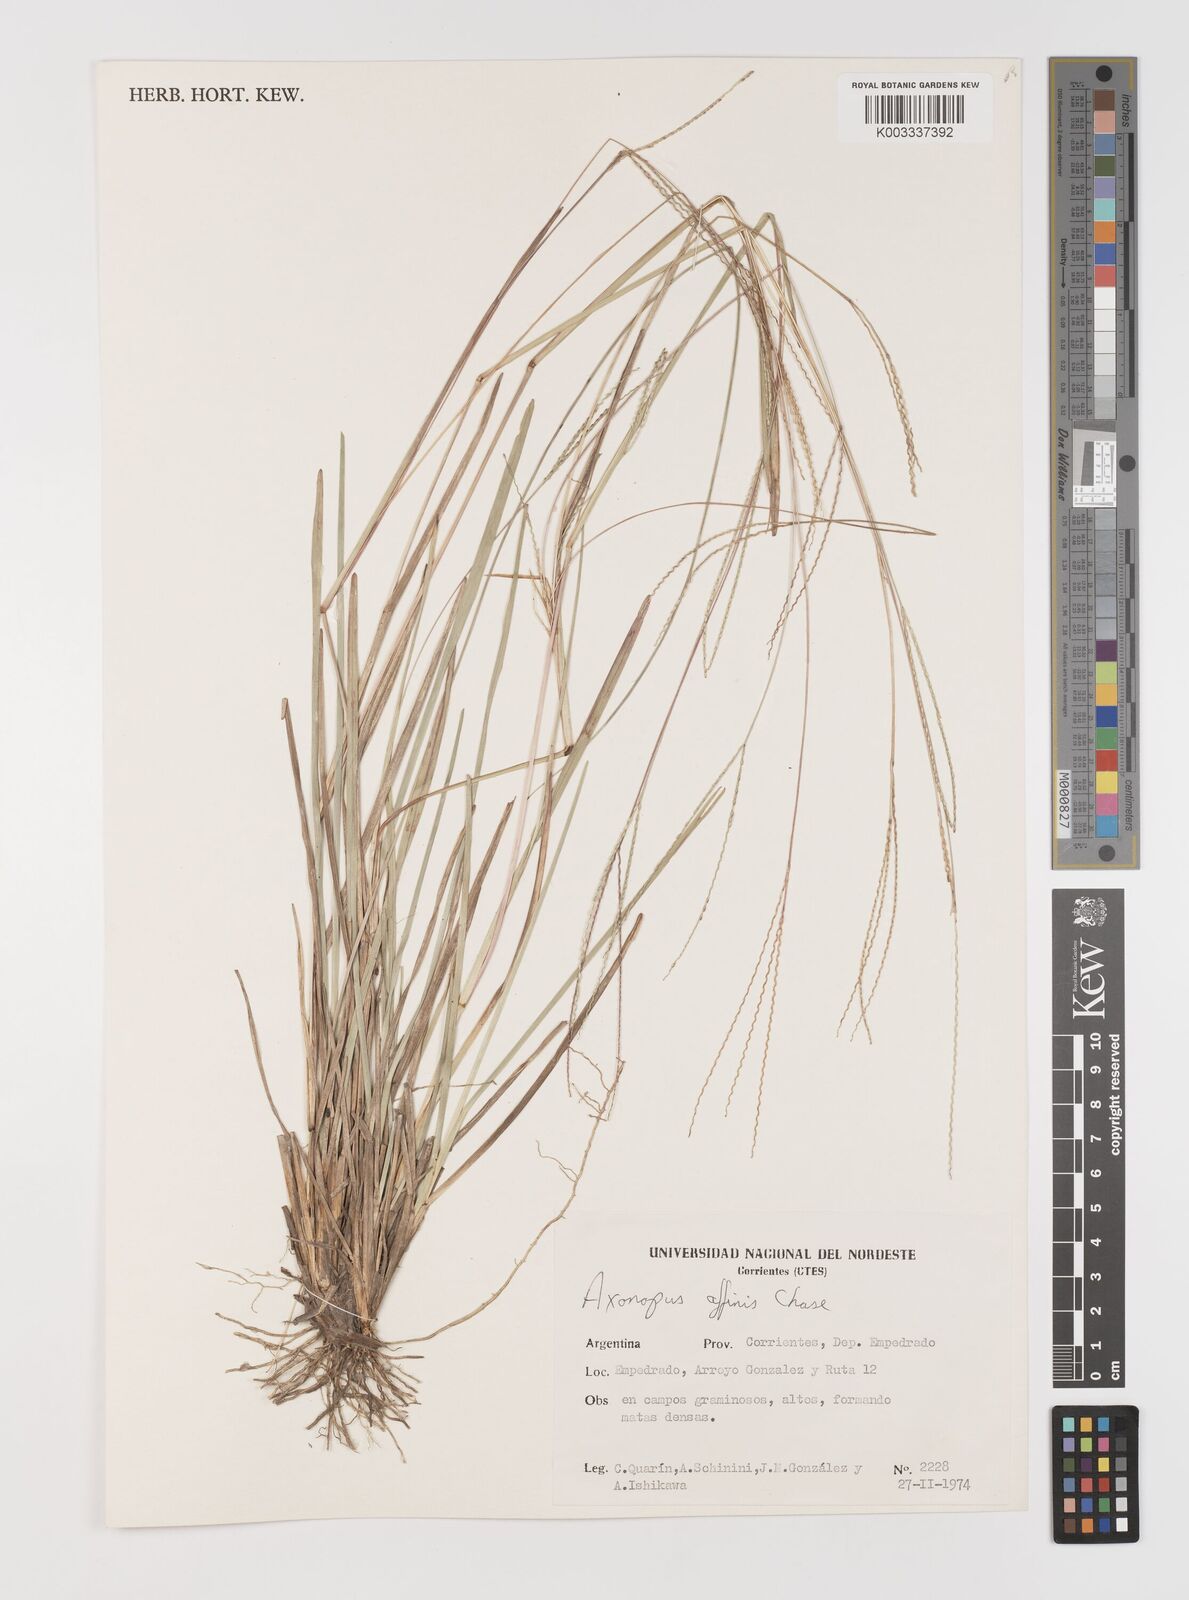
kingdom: Plantae
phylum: Tracheophyta
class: Liliopsida
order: Poales
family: Poaceae
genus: Axonopus
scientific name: Axonopus fissifolius
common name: Common carpetgrass
